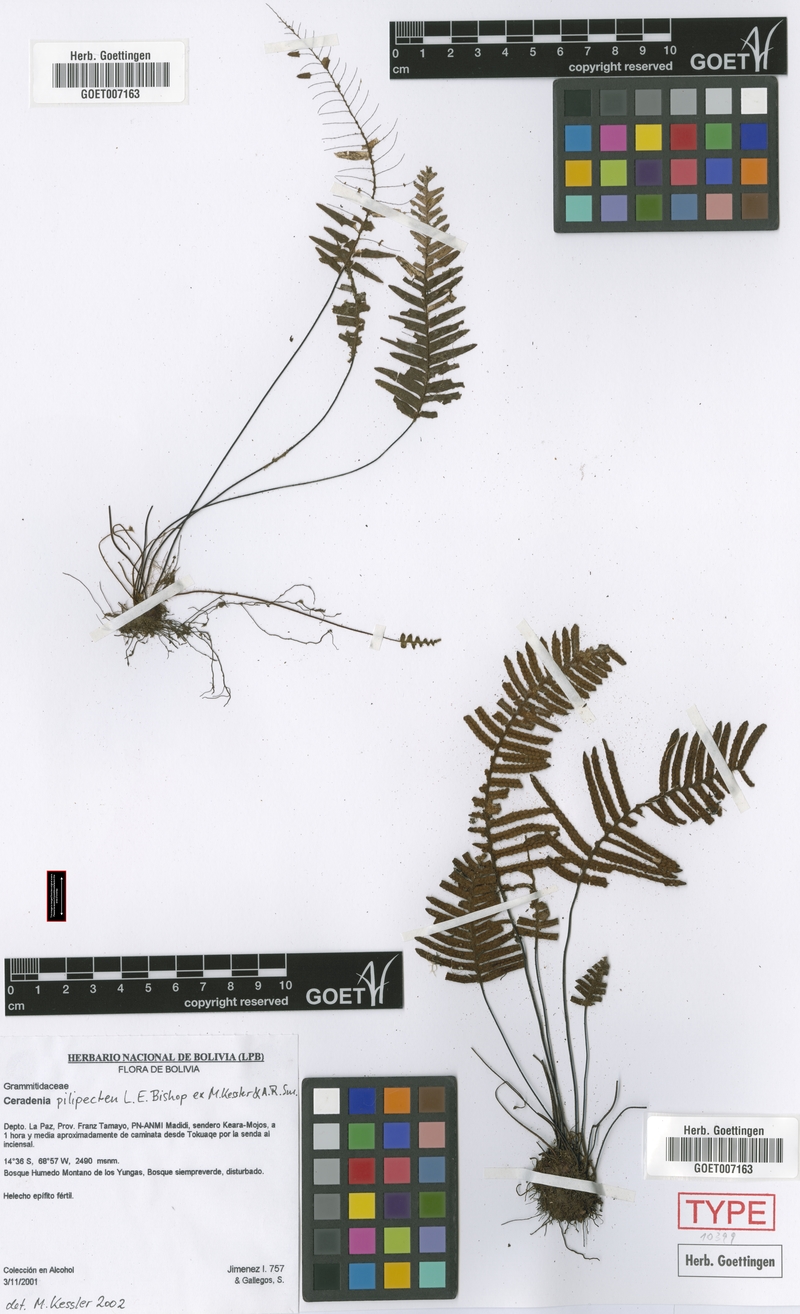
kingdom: Plantae
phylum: Tracheophyta
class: Polypodiopsida
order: Polypodiales
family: Polypodiaceae
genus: Ceradenia
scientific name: Ceradenia pilipecten
